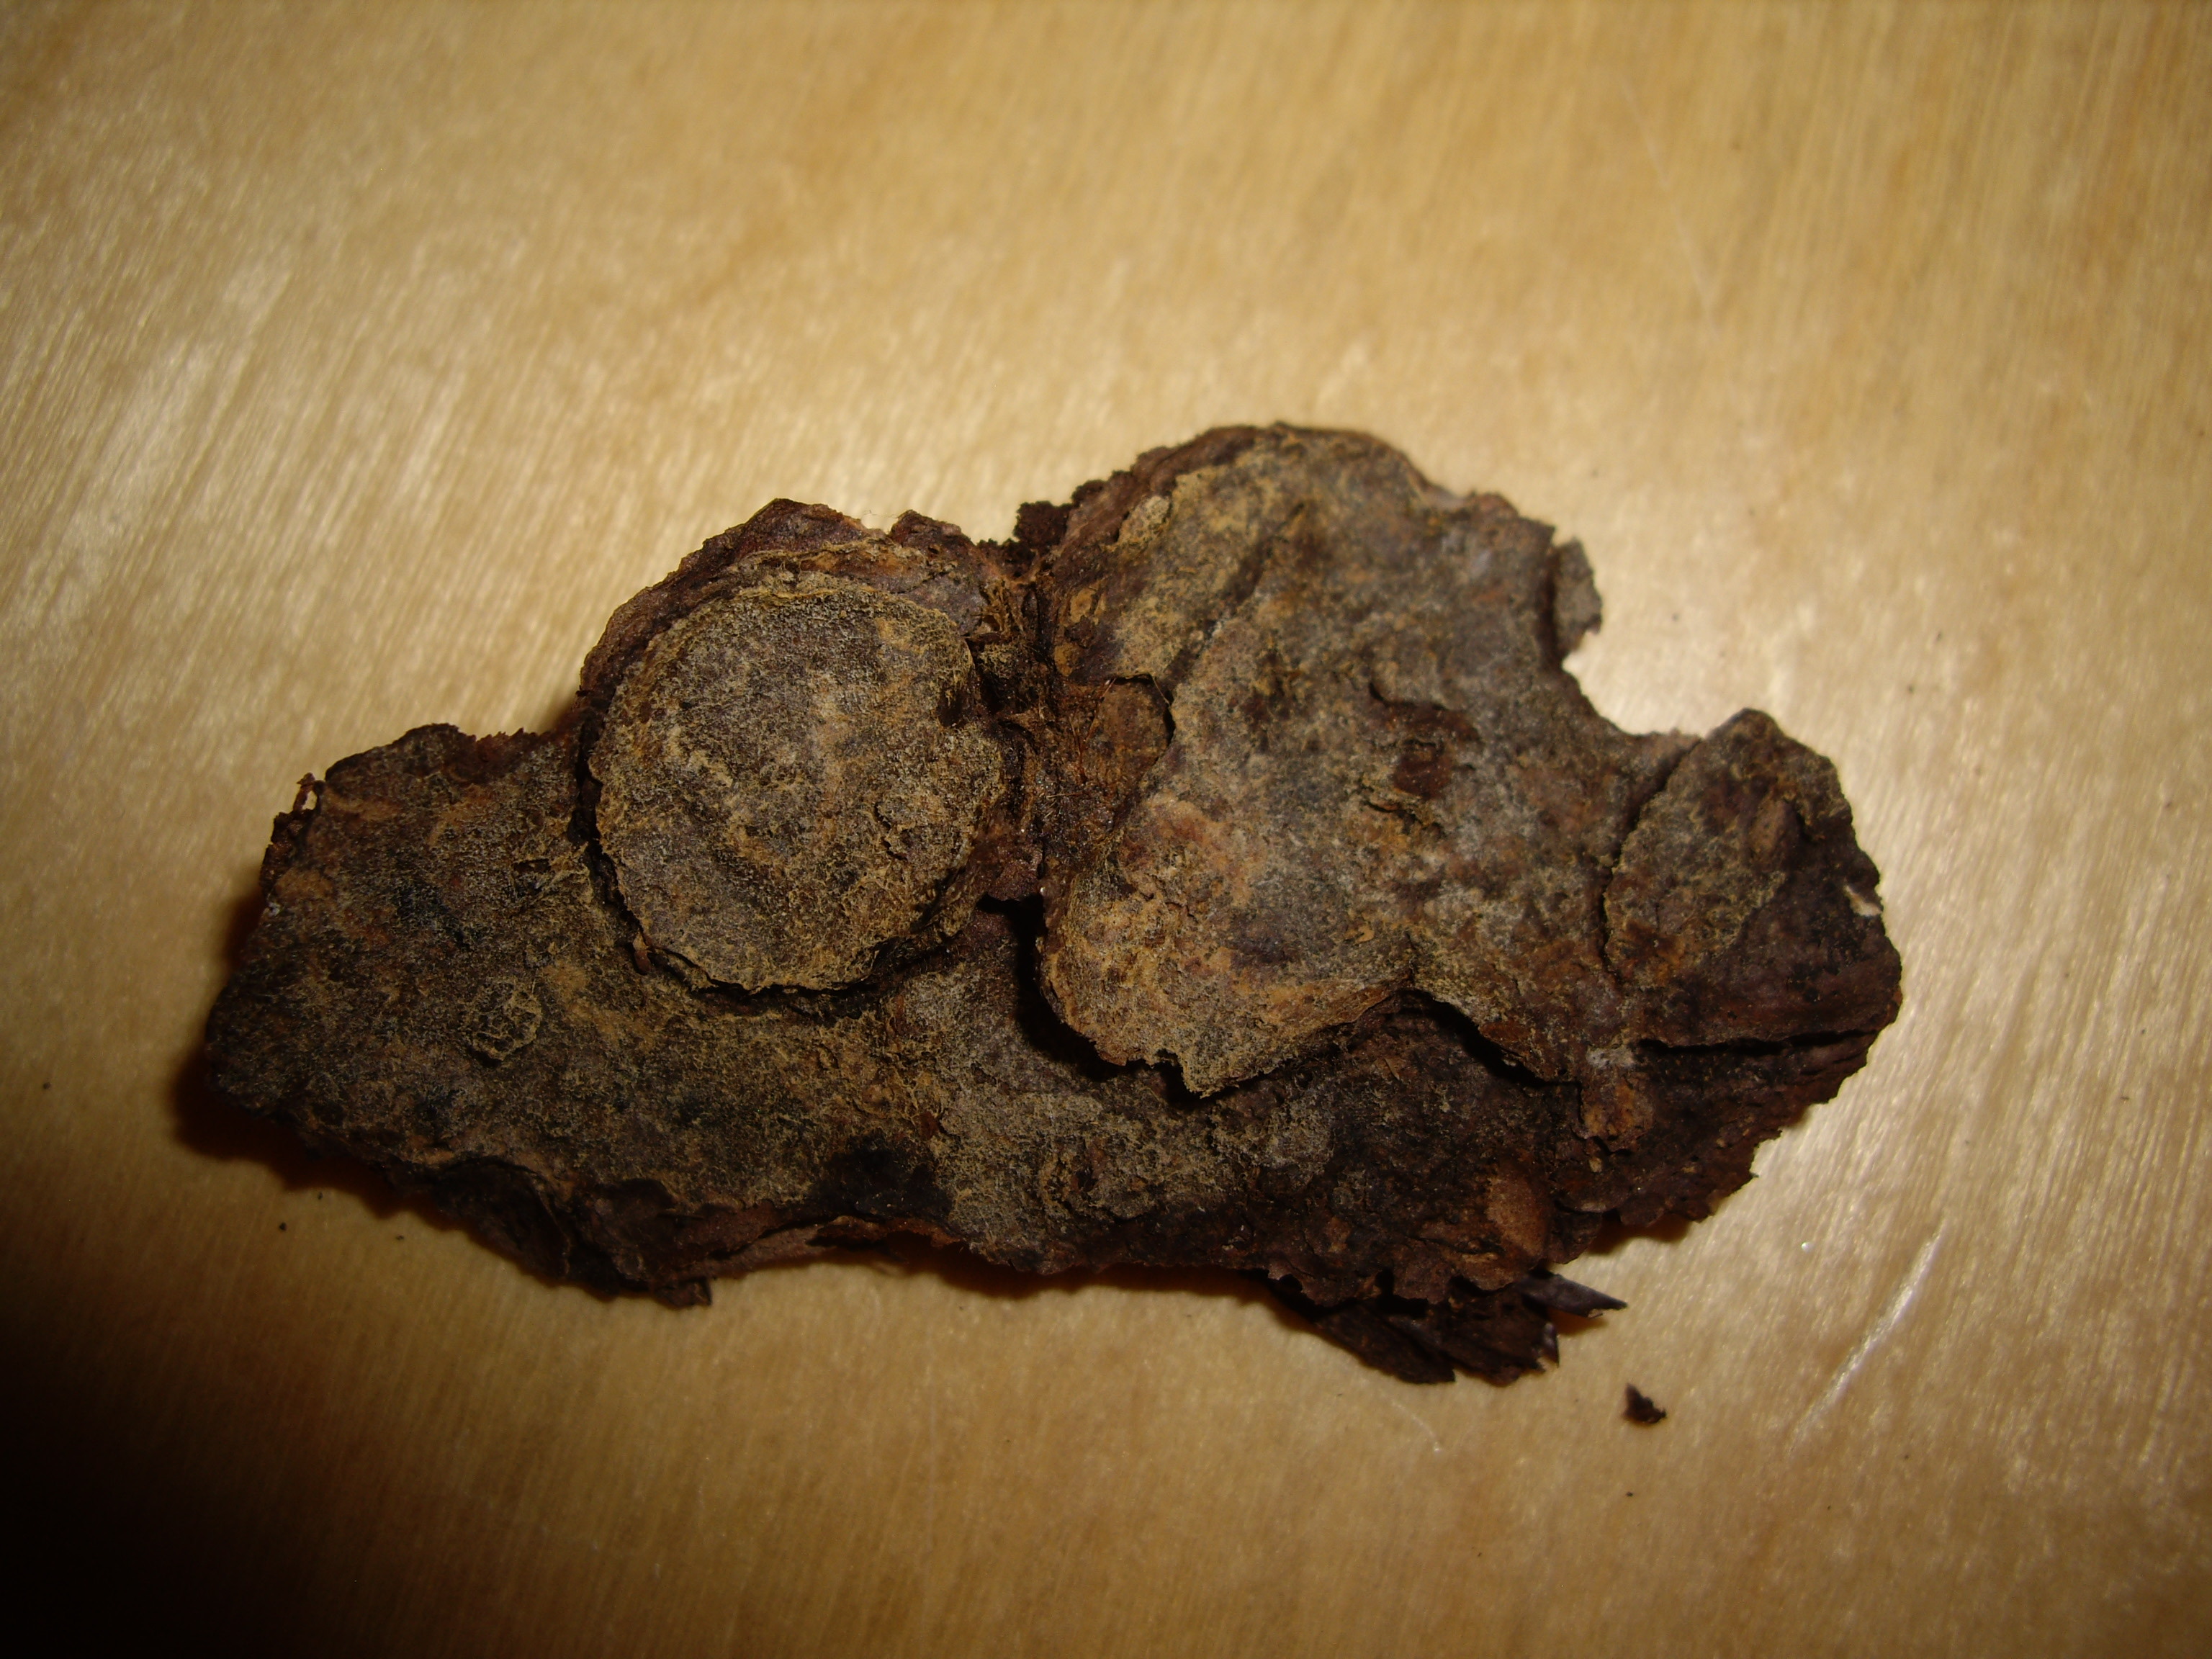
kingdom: Fungi
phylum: Basidiomycota
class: Agaricomycetes
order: Cantharellales
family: Botryobasidiaceae
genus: Haplotrichum
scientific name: Haplotrichum medium
